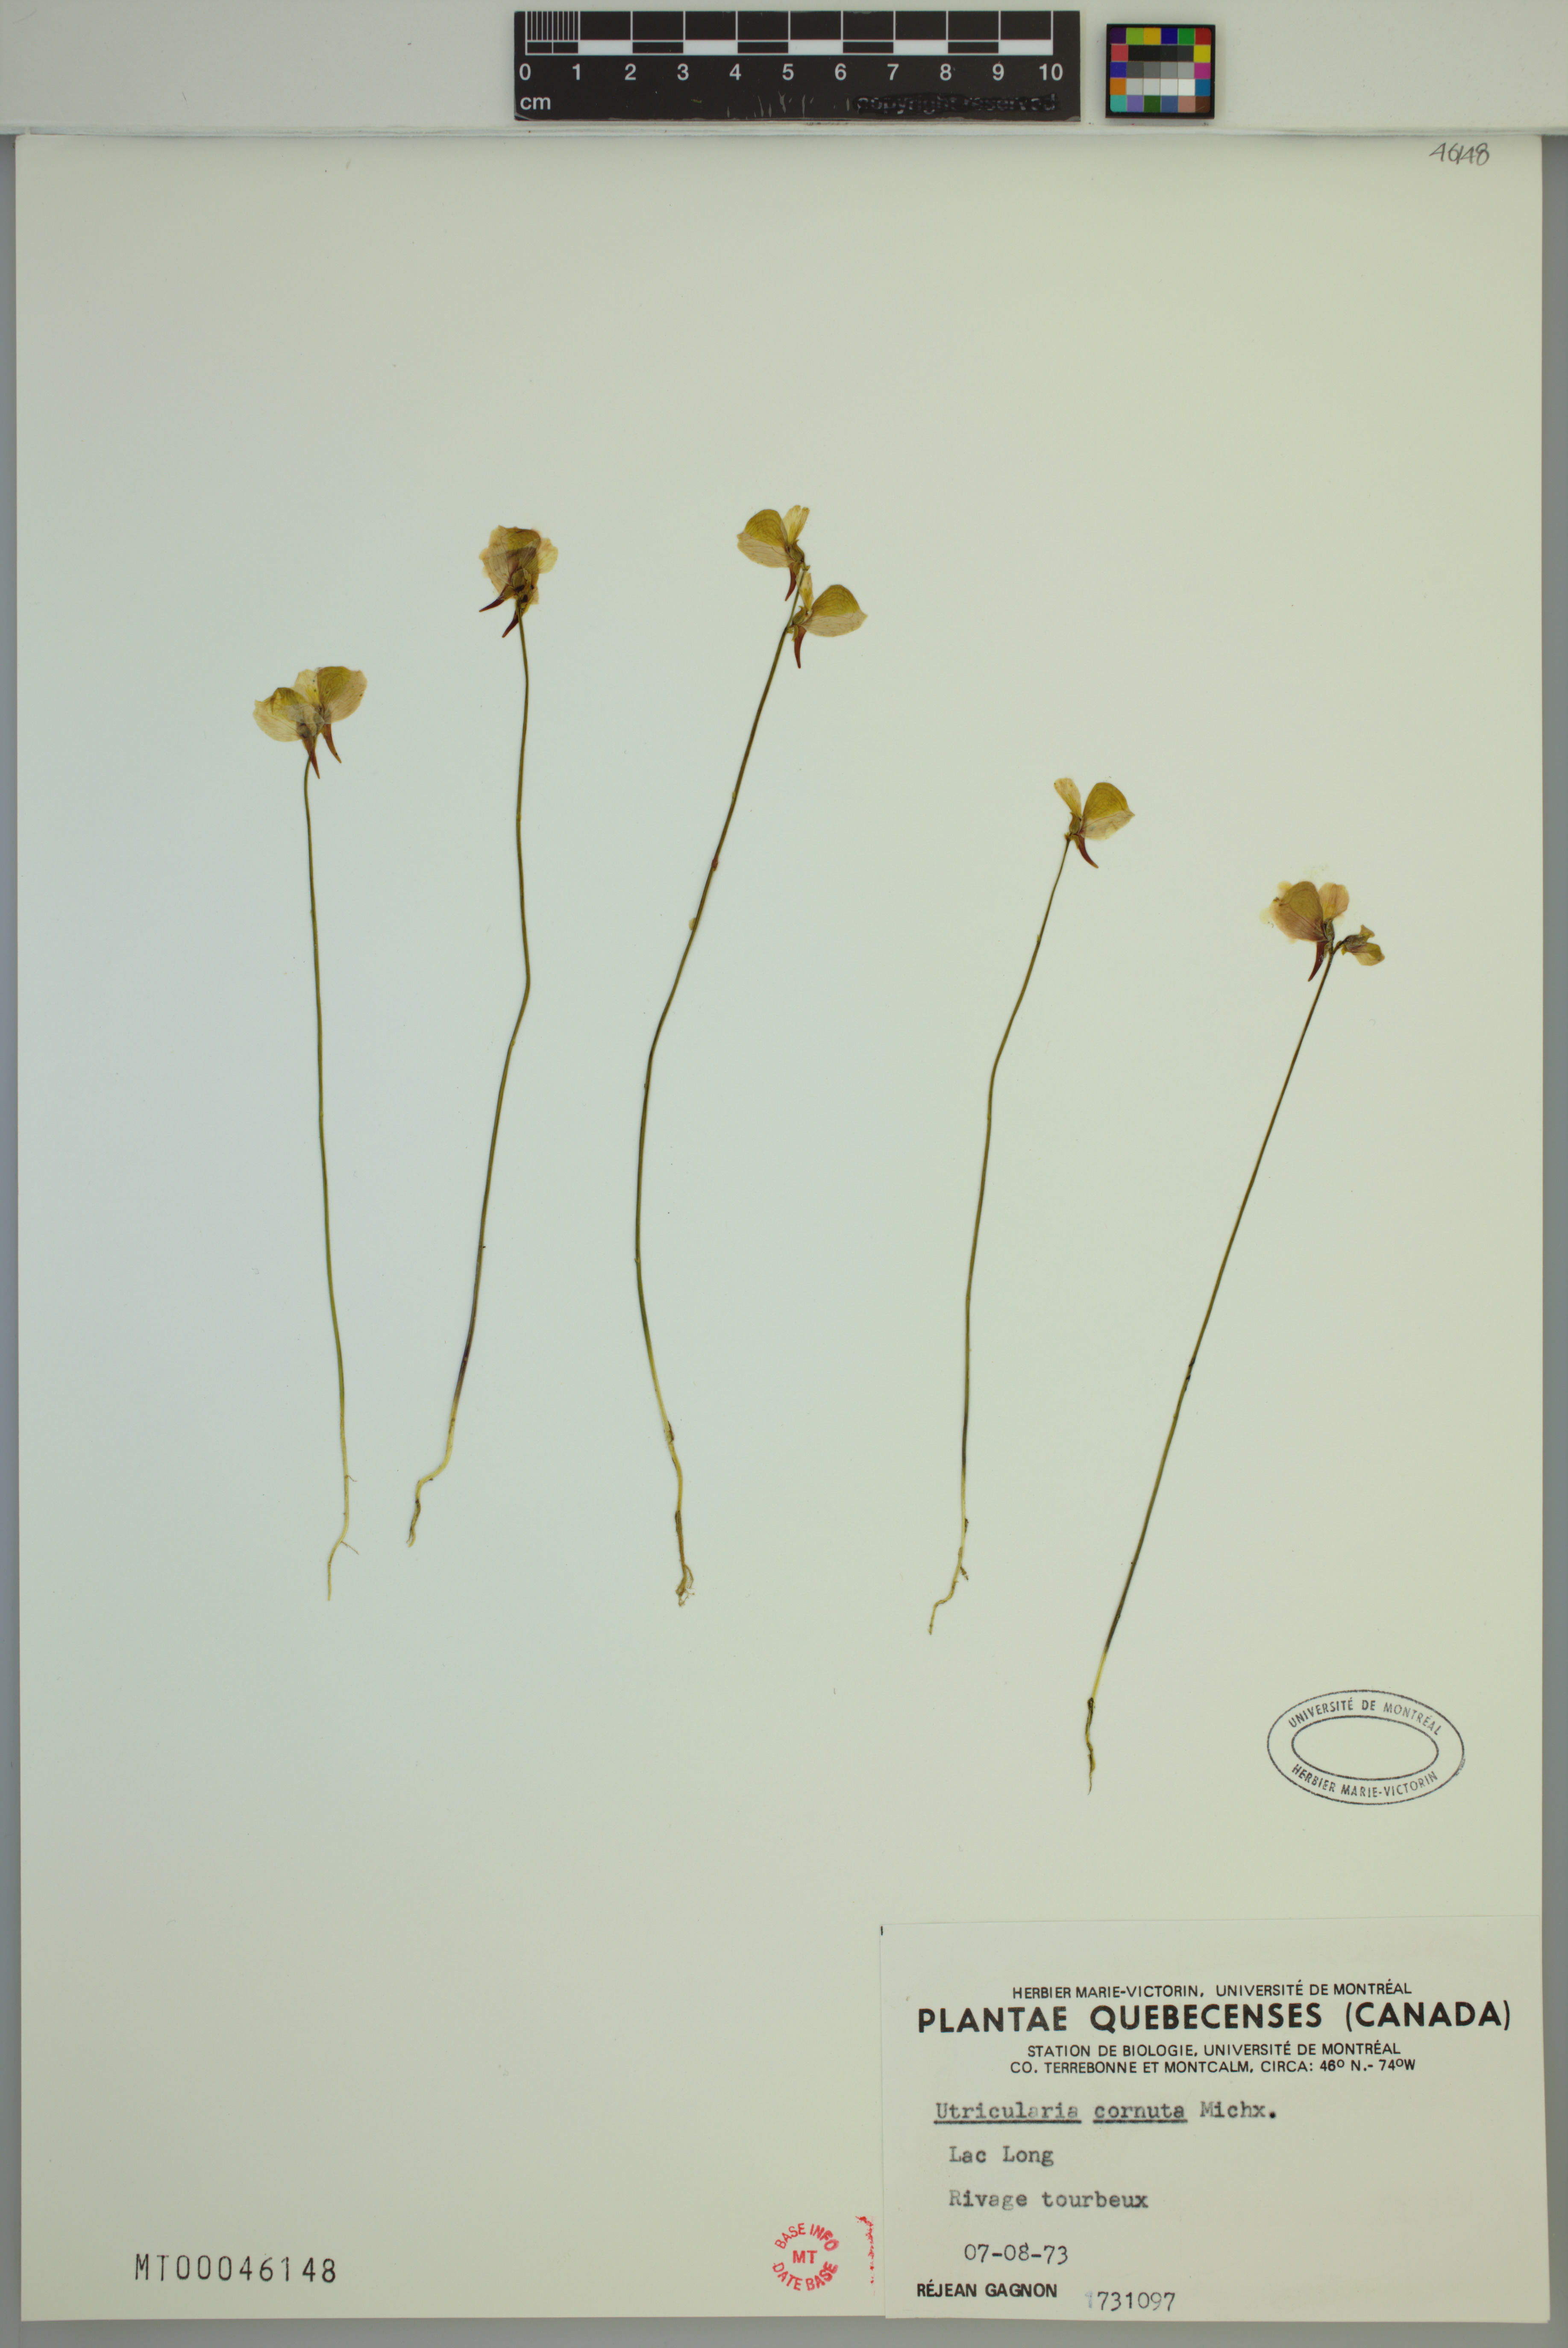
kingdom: Plantae
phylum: Tracheophyta
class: Magnoliopsida
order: Lamiales
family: Lentibulariaceae
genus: Utricularia
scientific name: Utricularia cornuta
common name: Horned bladderwort
